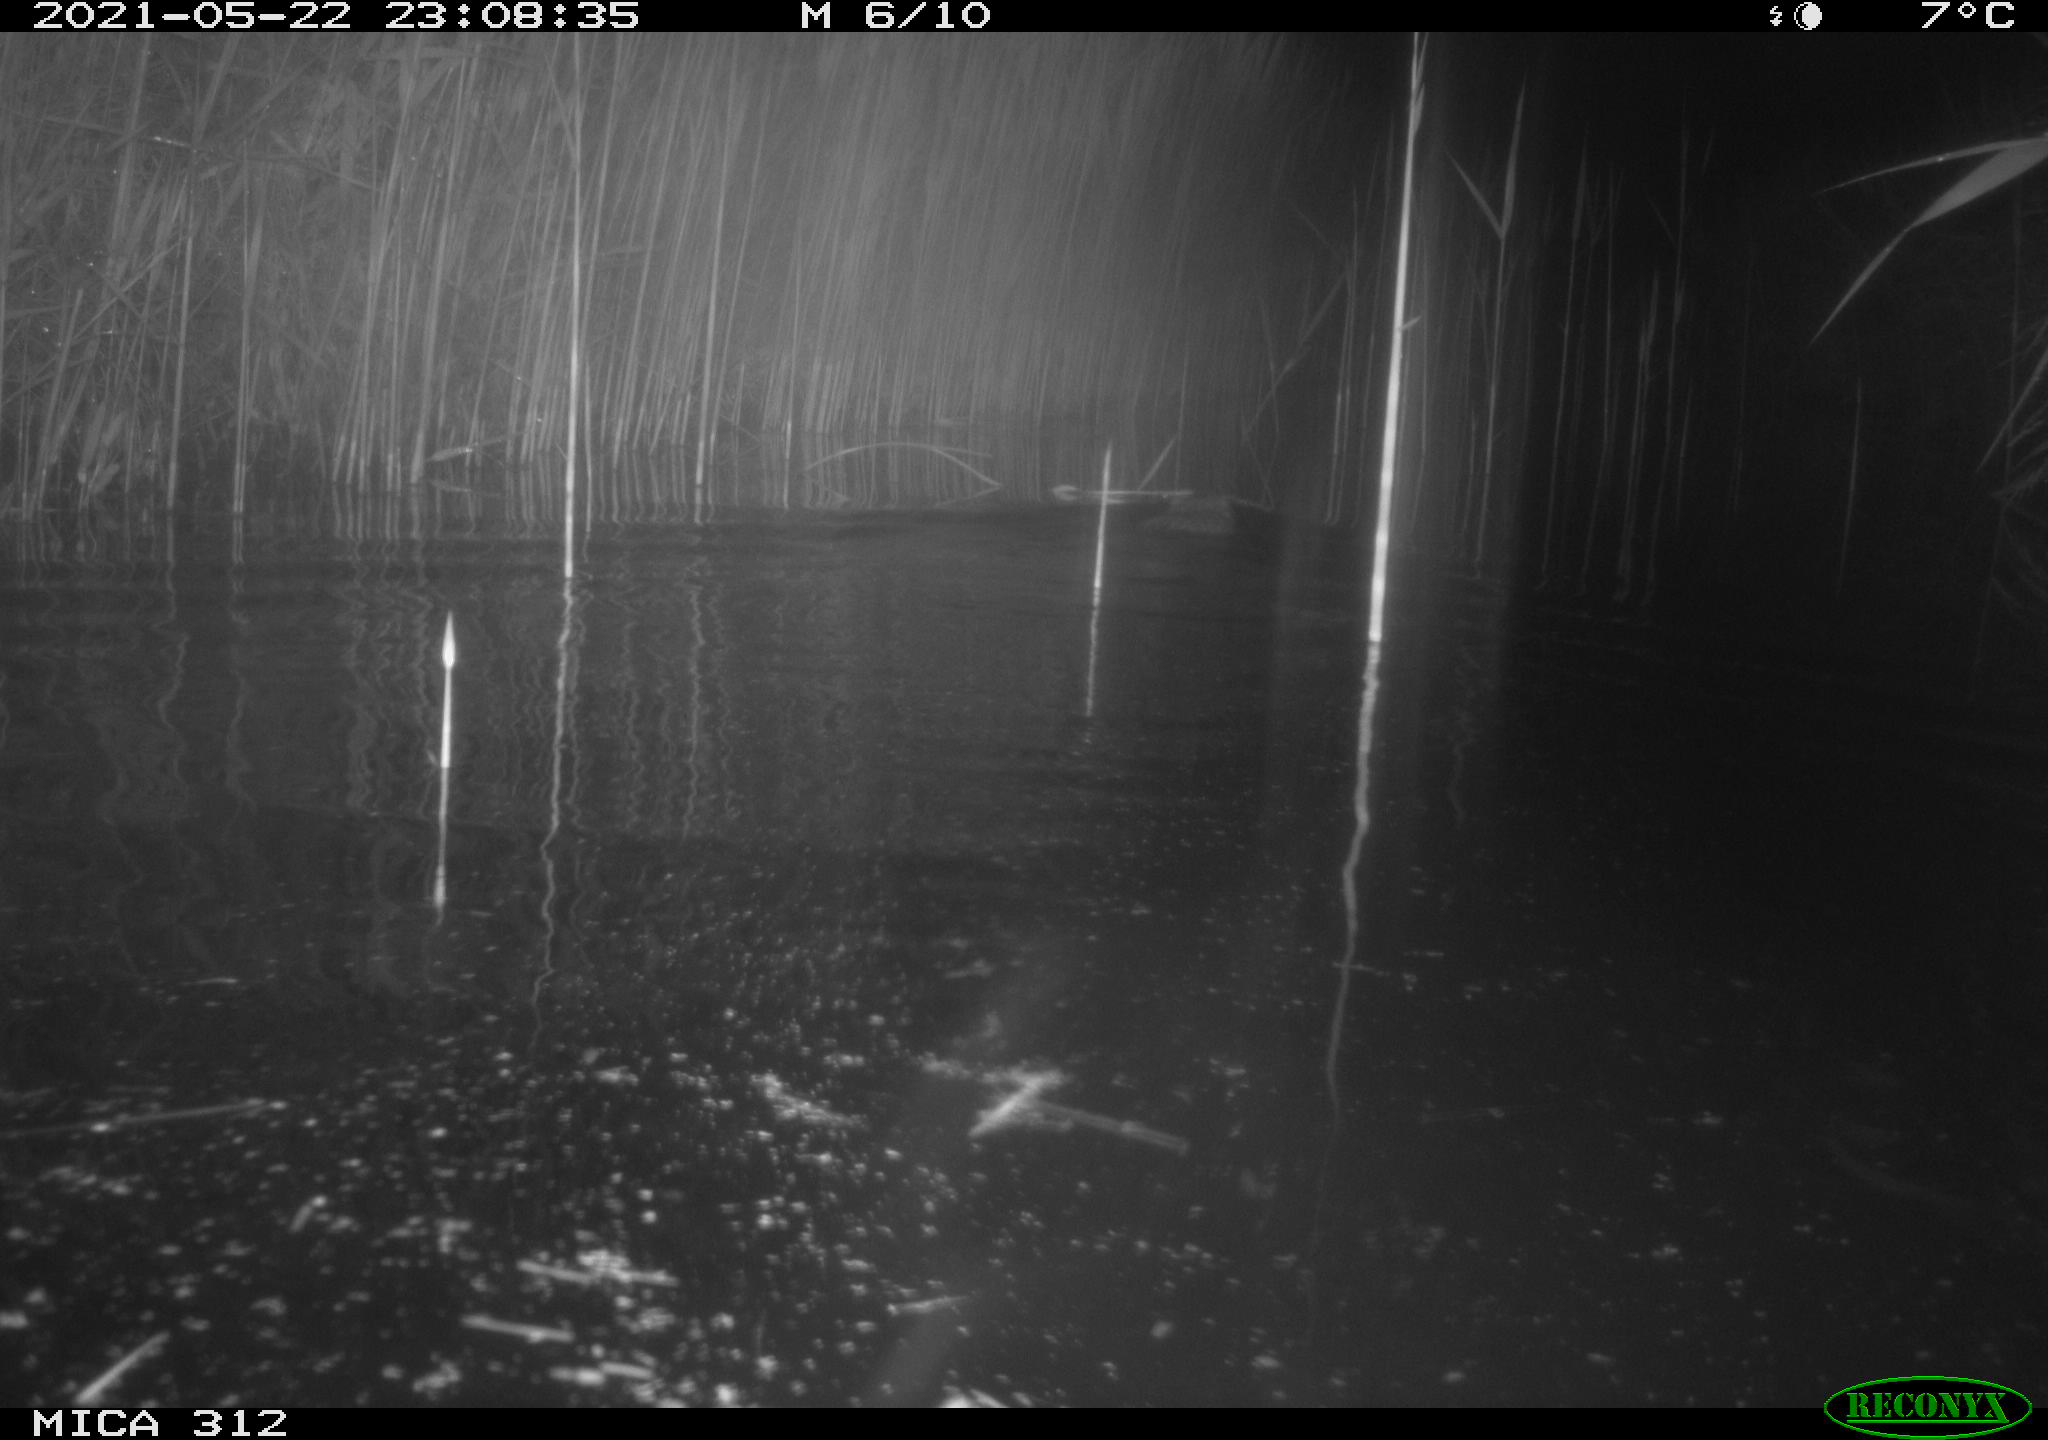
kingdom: Animalia
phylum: Chordata
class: Mammalia
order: Rodentia
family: Cricetidae
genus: Ondatra
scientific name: Ondatra zibethicus
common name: Muskrat
